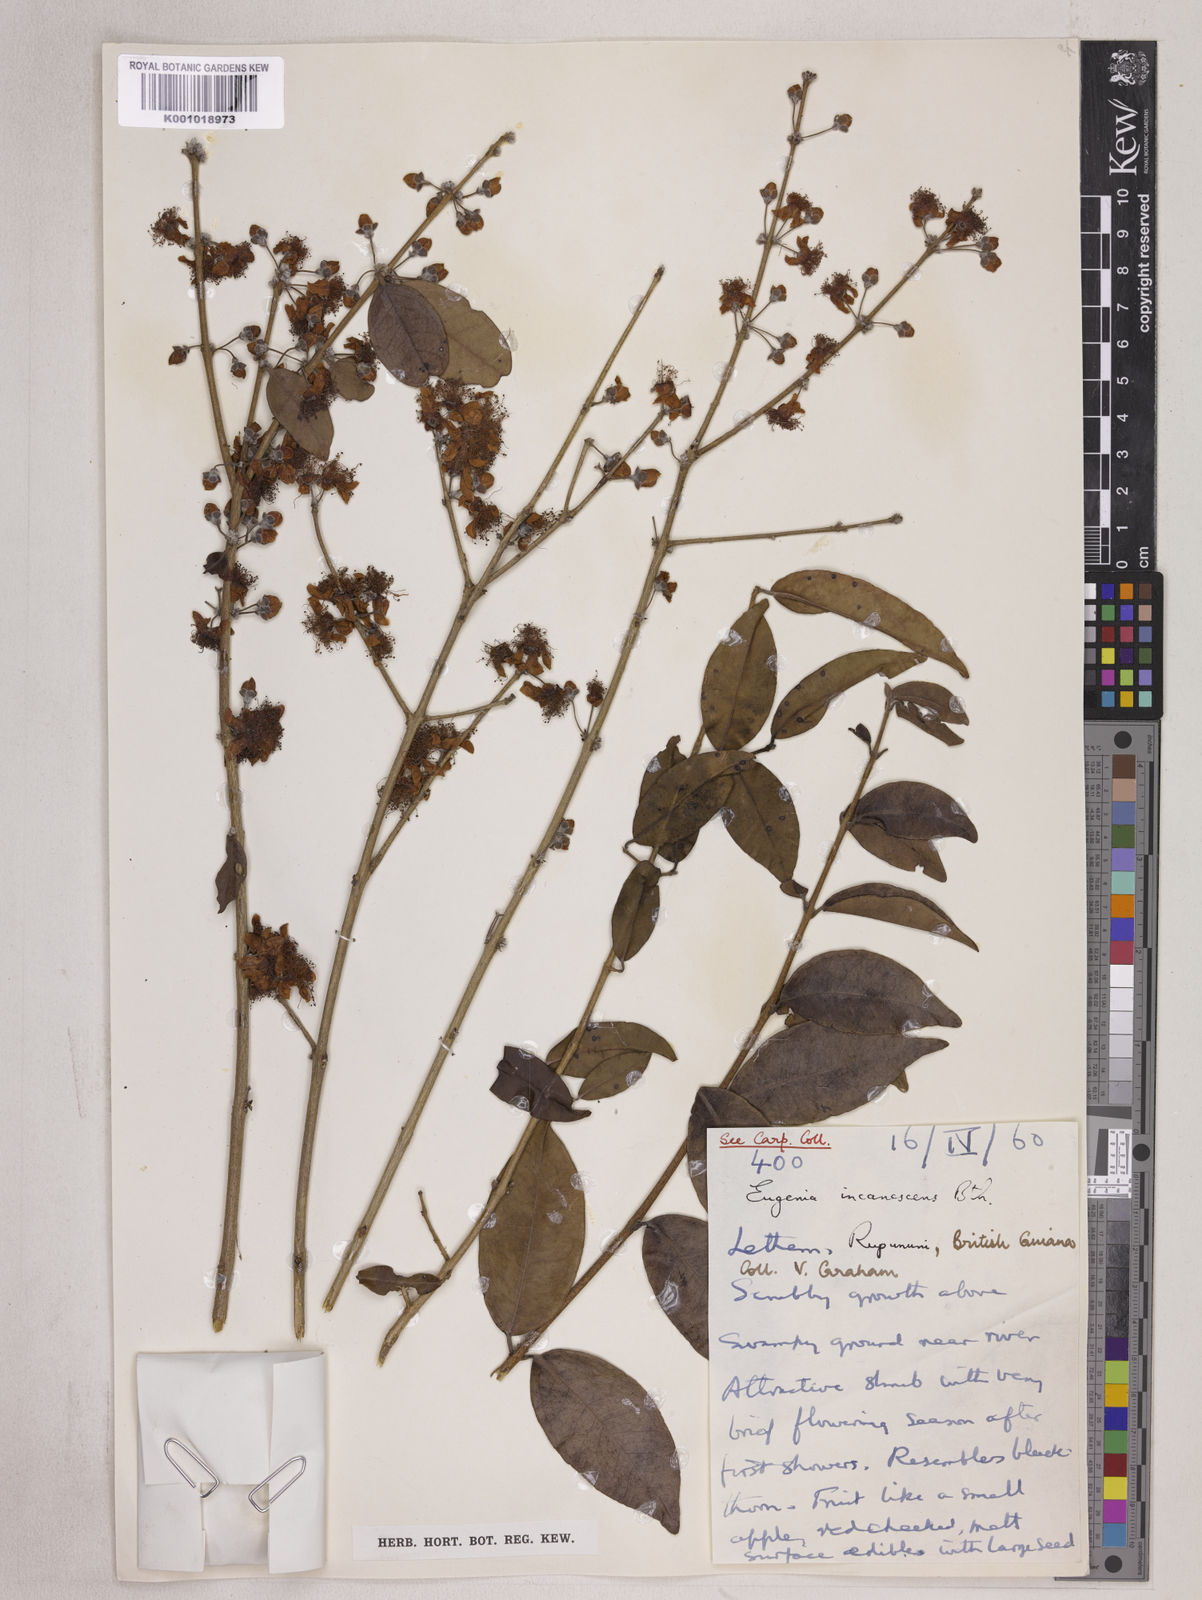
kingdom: Plantae
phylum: Tracheophyta
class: Magnoliopsida
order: Myrtales
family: Myrtaceae
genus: Eugenia
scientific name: Eugenia incanescens
